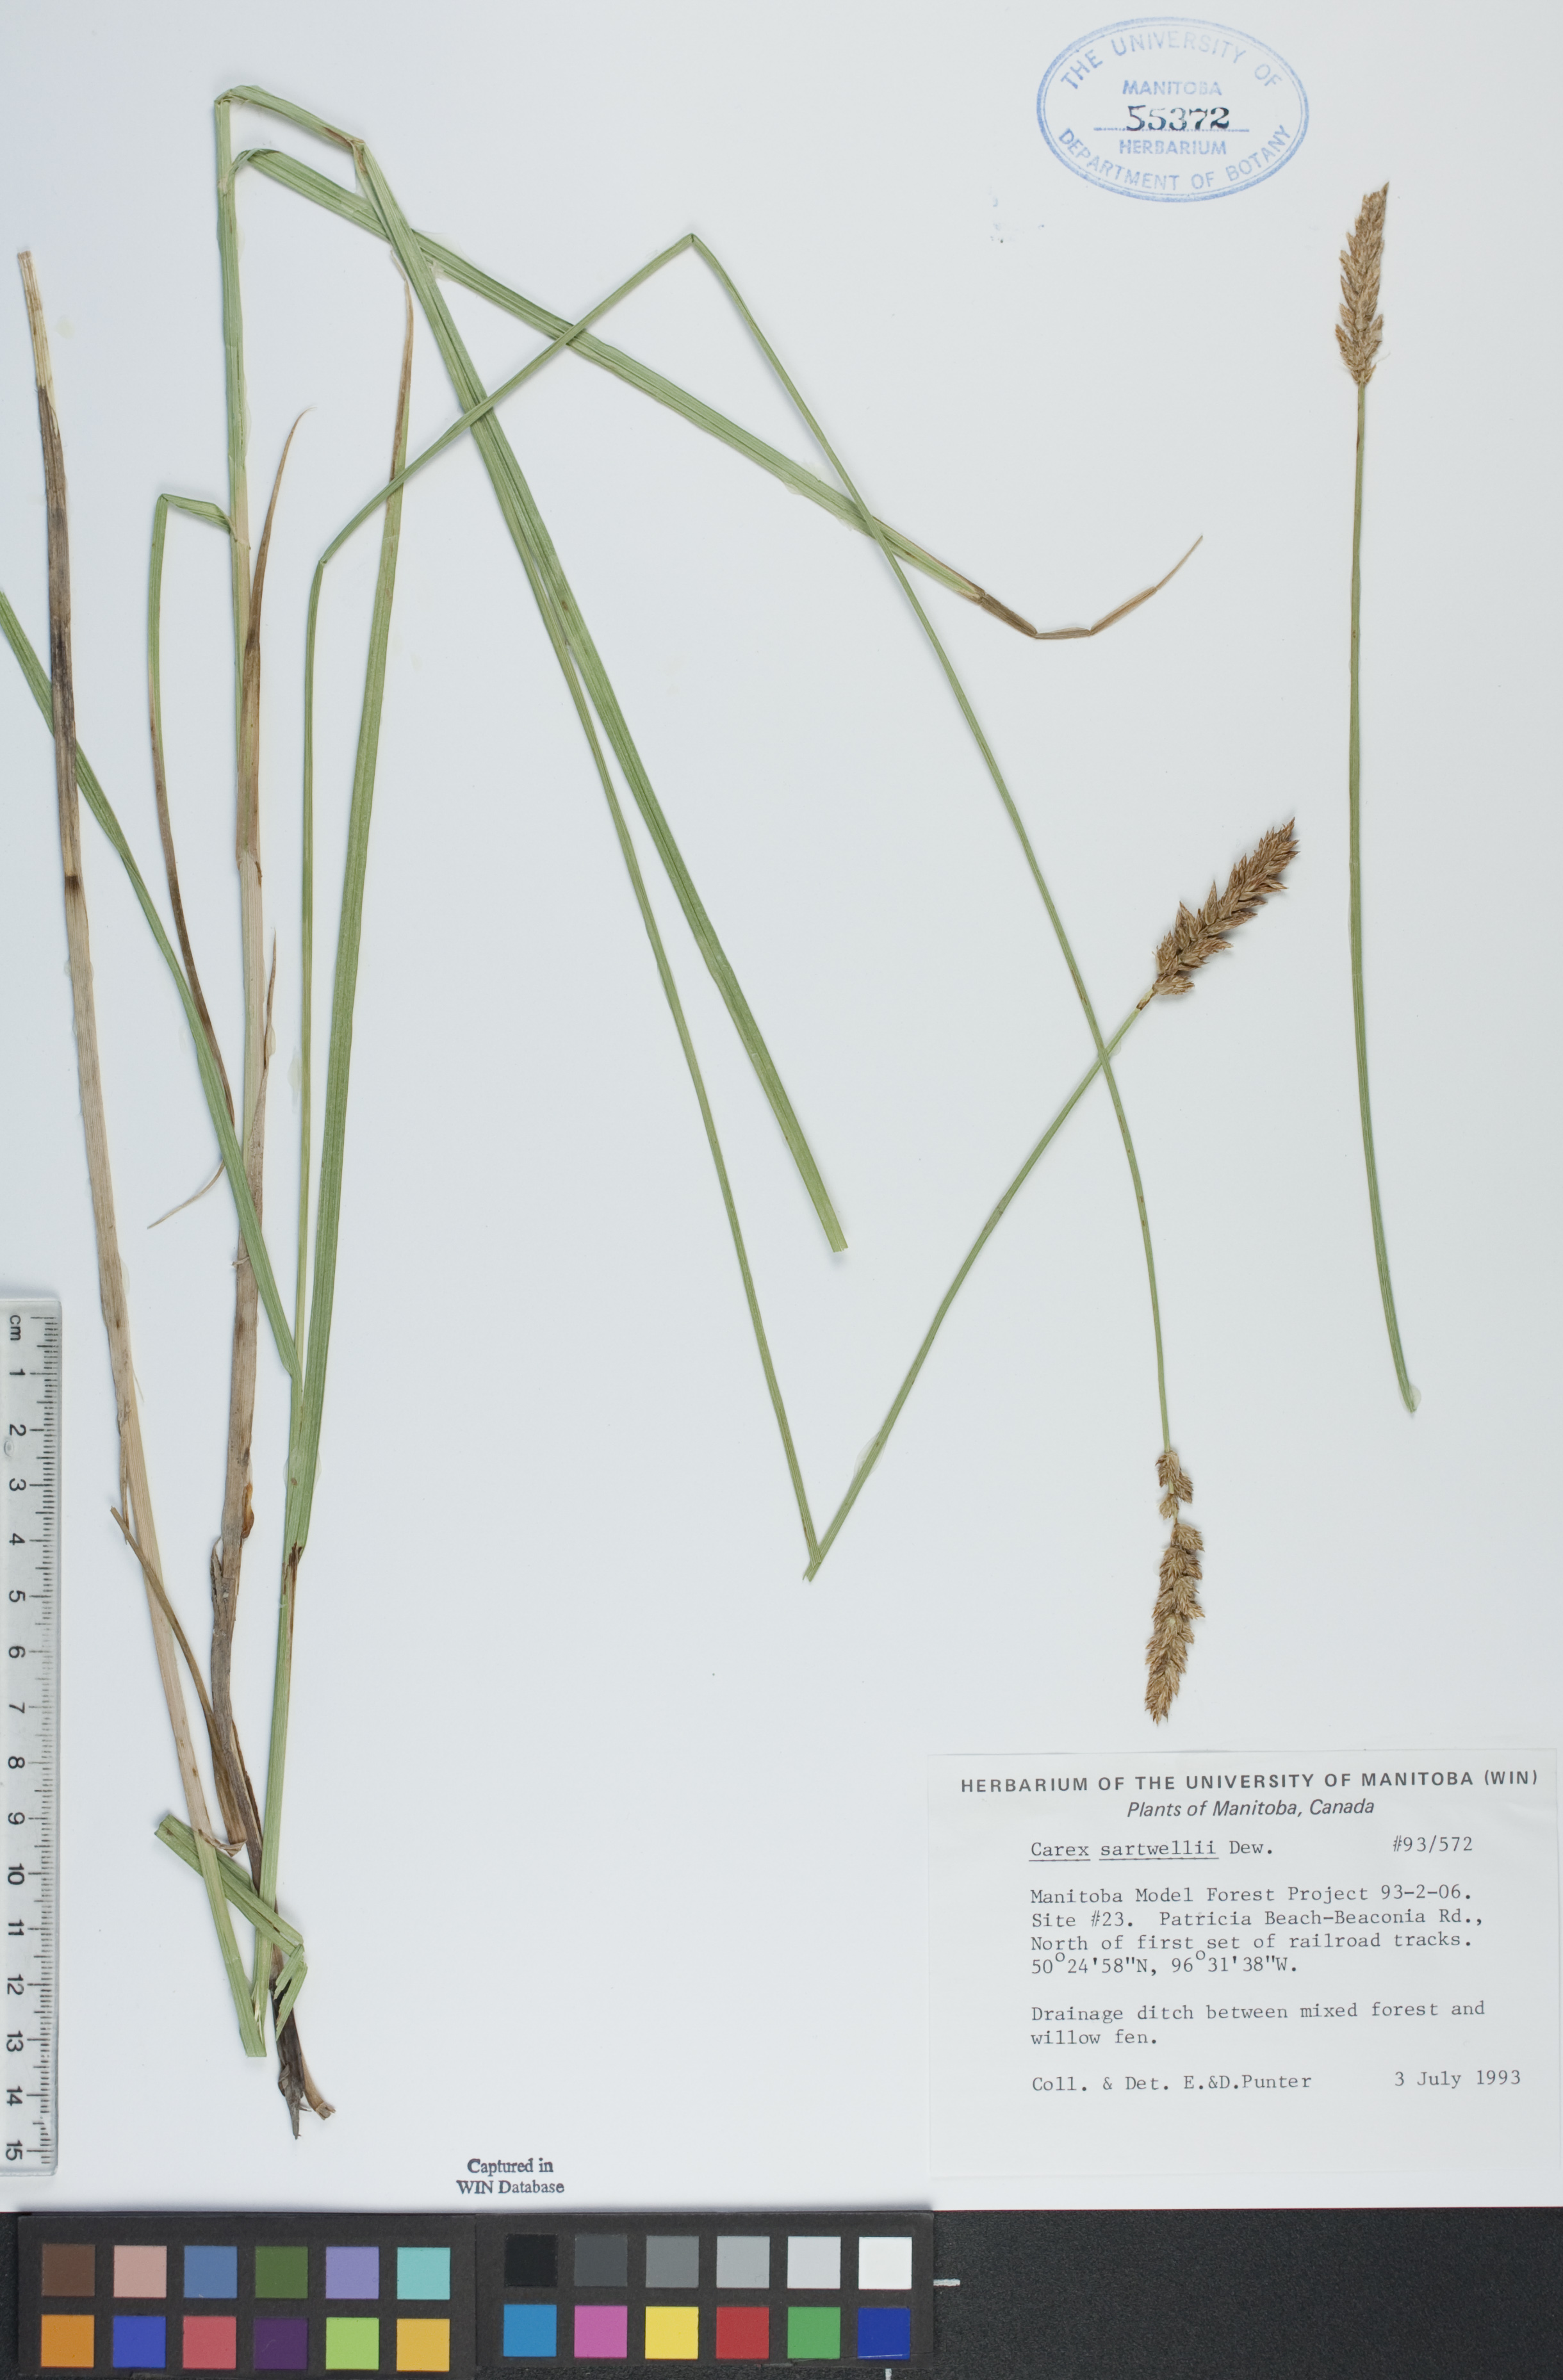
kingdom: Plantae
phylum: Tracheophyta
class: Liliopsida
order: Poales
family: Cyperaceae
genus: Carex
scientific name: Carex sartwellii
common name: Sartwell's sedge
